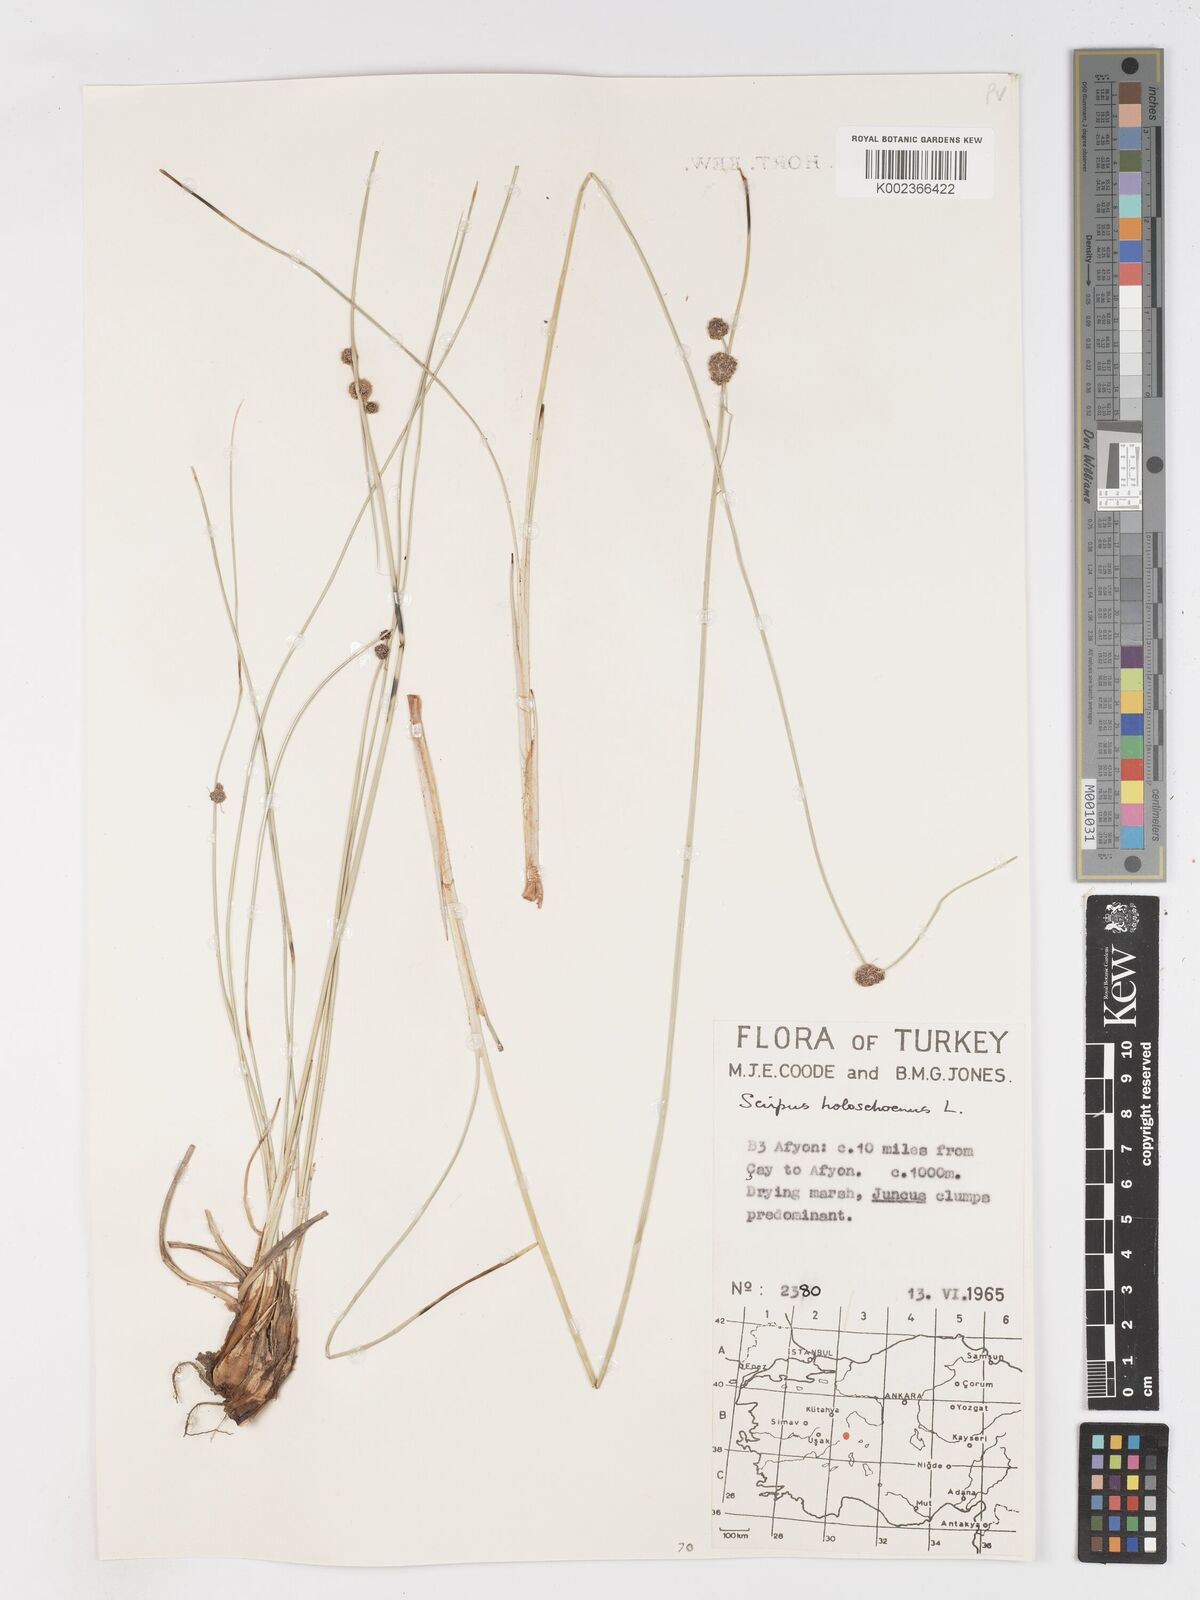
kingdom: Plantae
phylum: Tracheophyta
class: Liliopsida
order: Poales
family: Cyperaceae
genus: Scirpoides
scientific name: Scirpoides holoschoenus
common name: Round-headed club-rush
